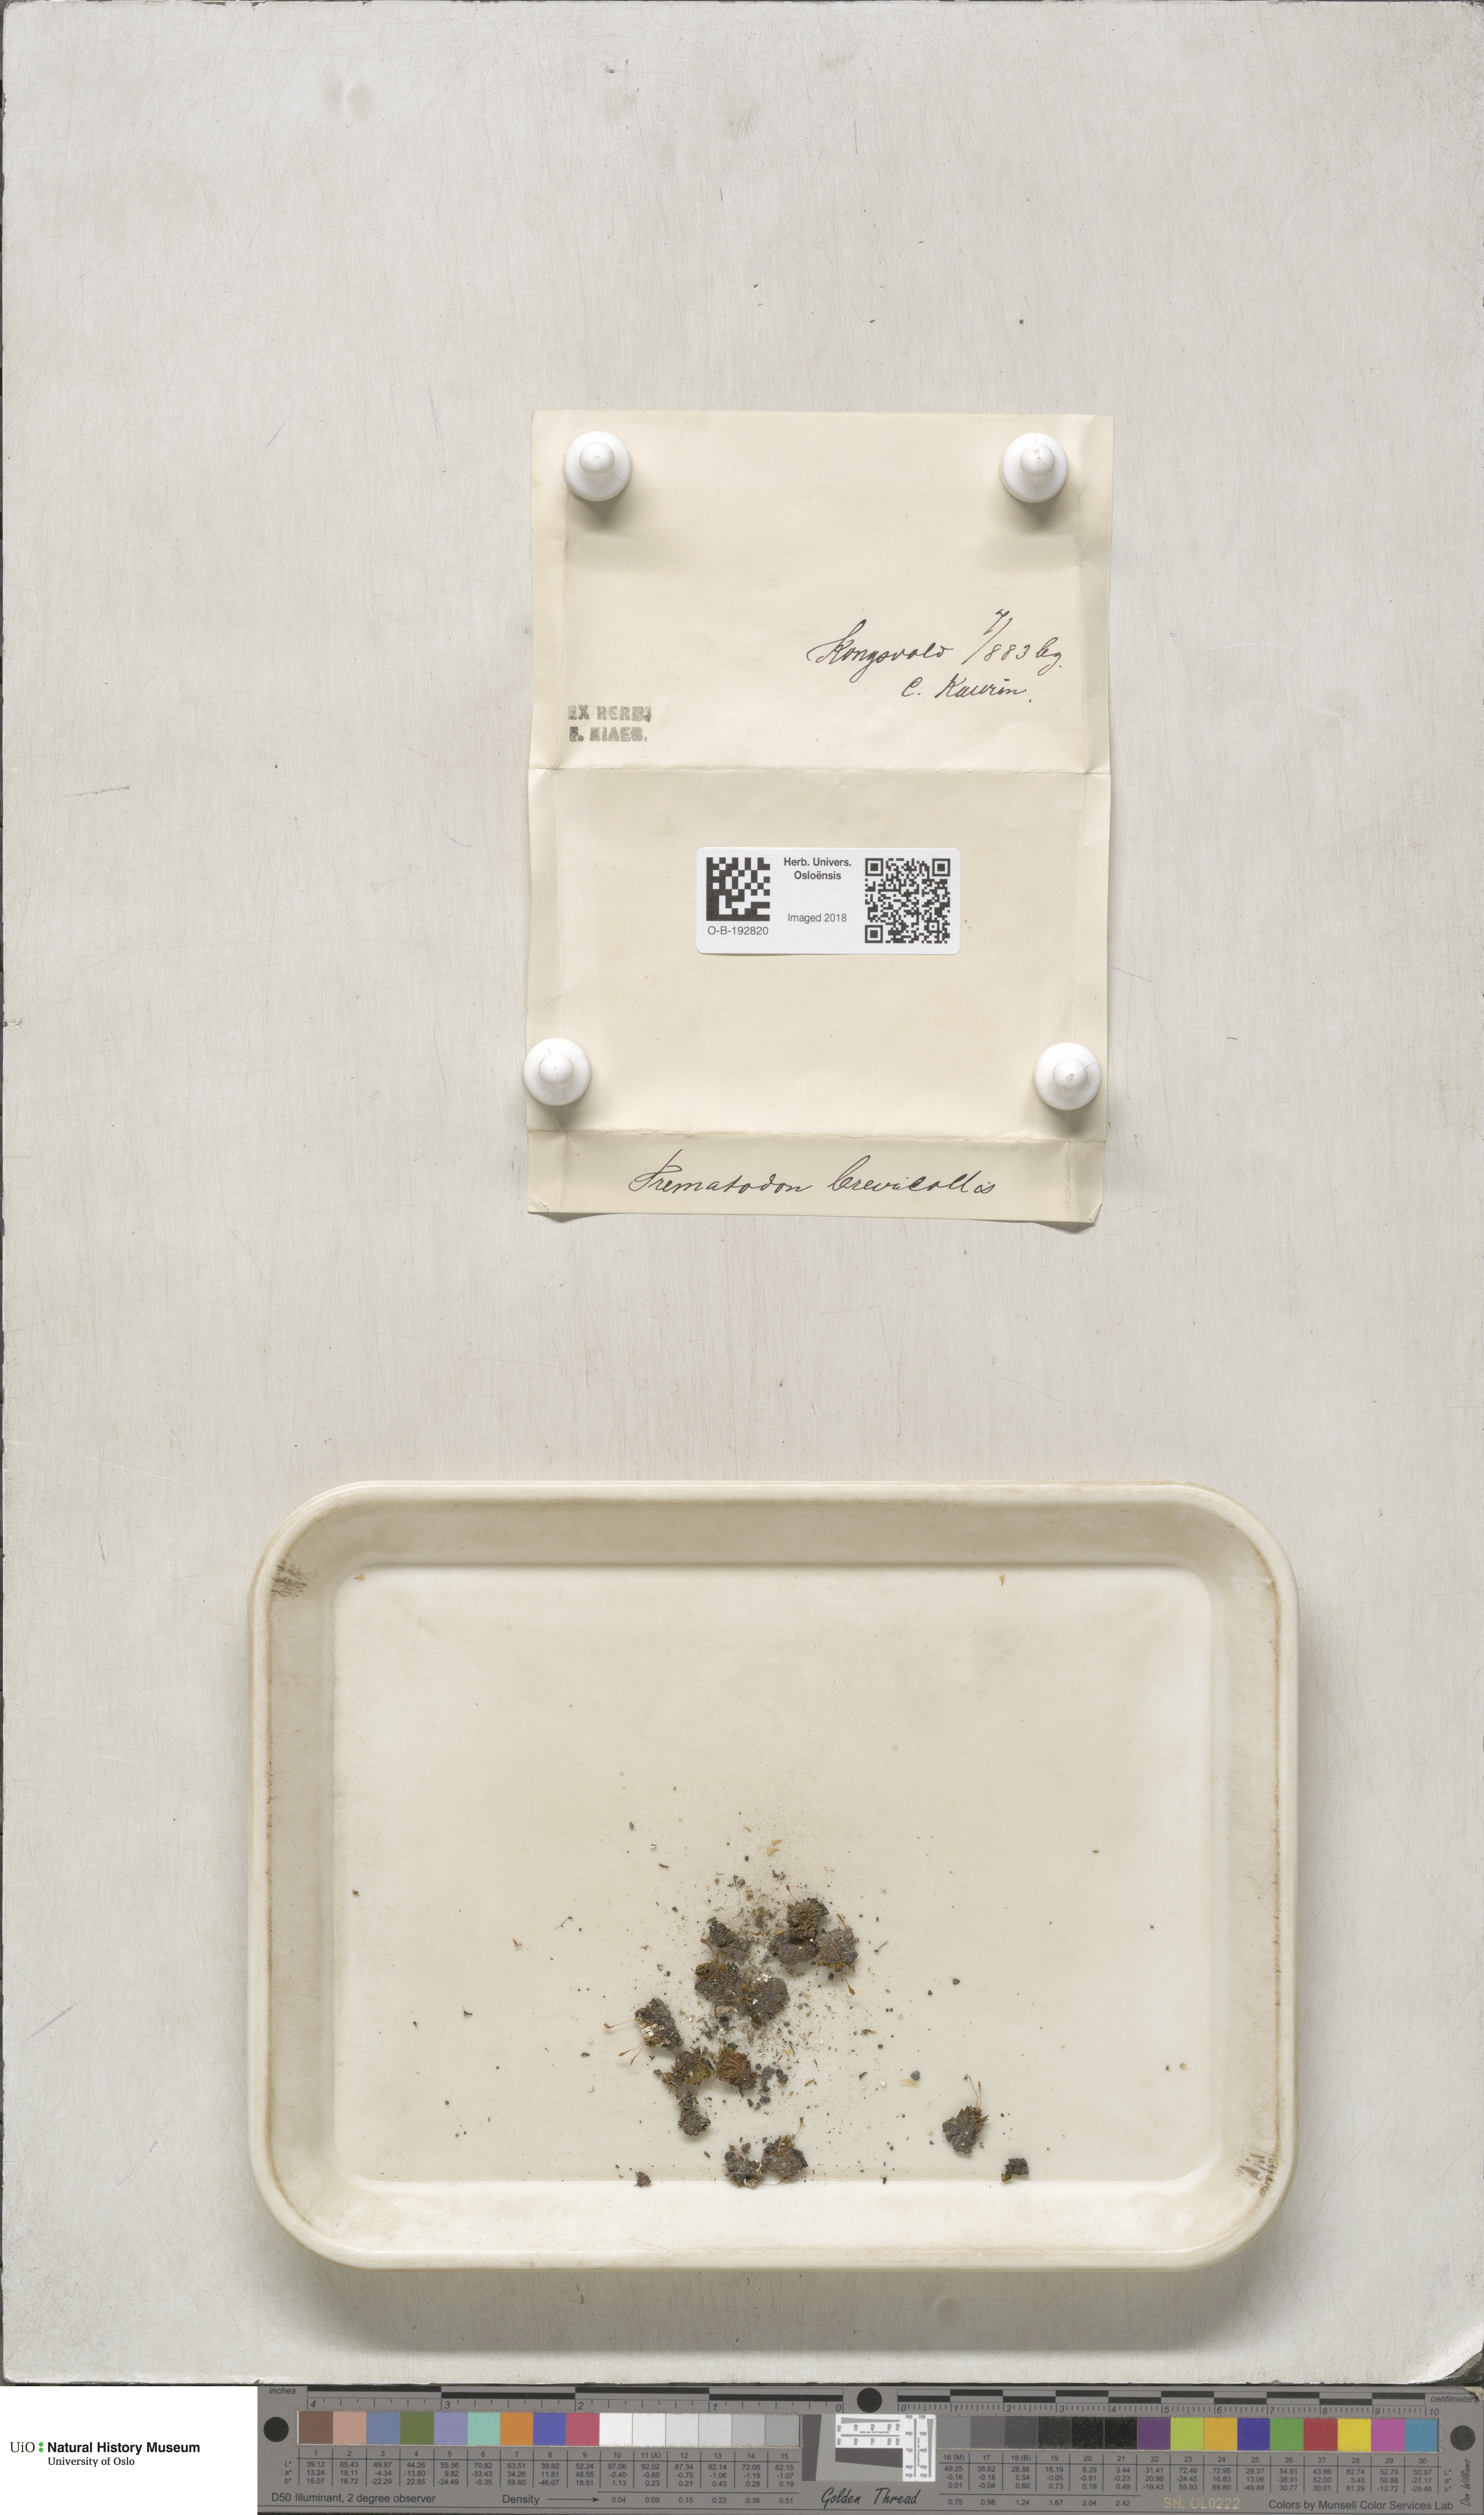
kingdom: Plantae
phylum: Bryophyta
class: Bryopsida
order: Dicranales
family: Bruchiaceae
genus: Trematodon
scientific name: Trematodon brevicollis
